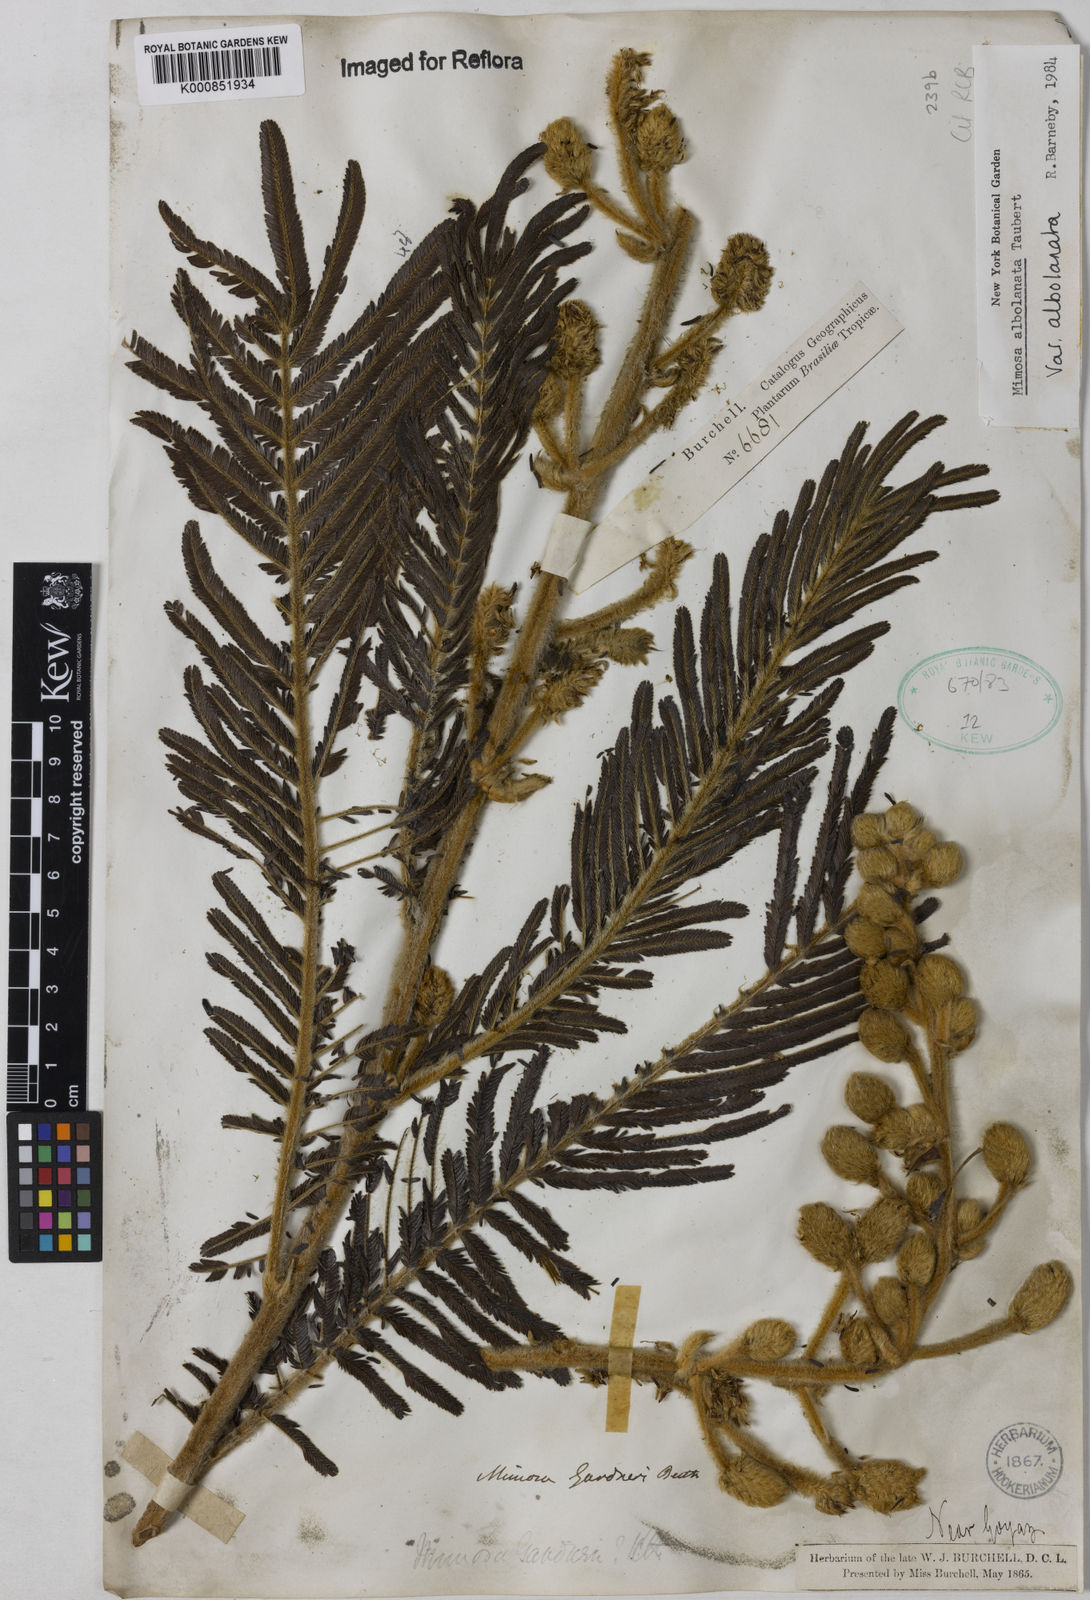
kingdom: Plantae
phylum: Tracheophyta
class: Magnoliopsida
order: Fabales
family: Fabaceae
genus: Mimosa
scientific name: Mimosa albolanata
